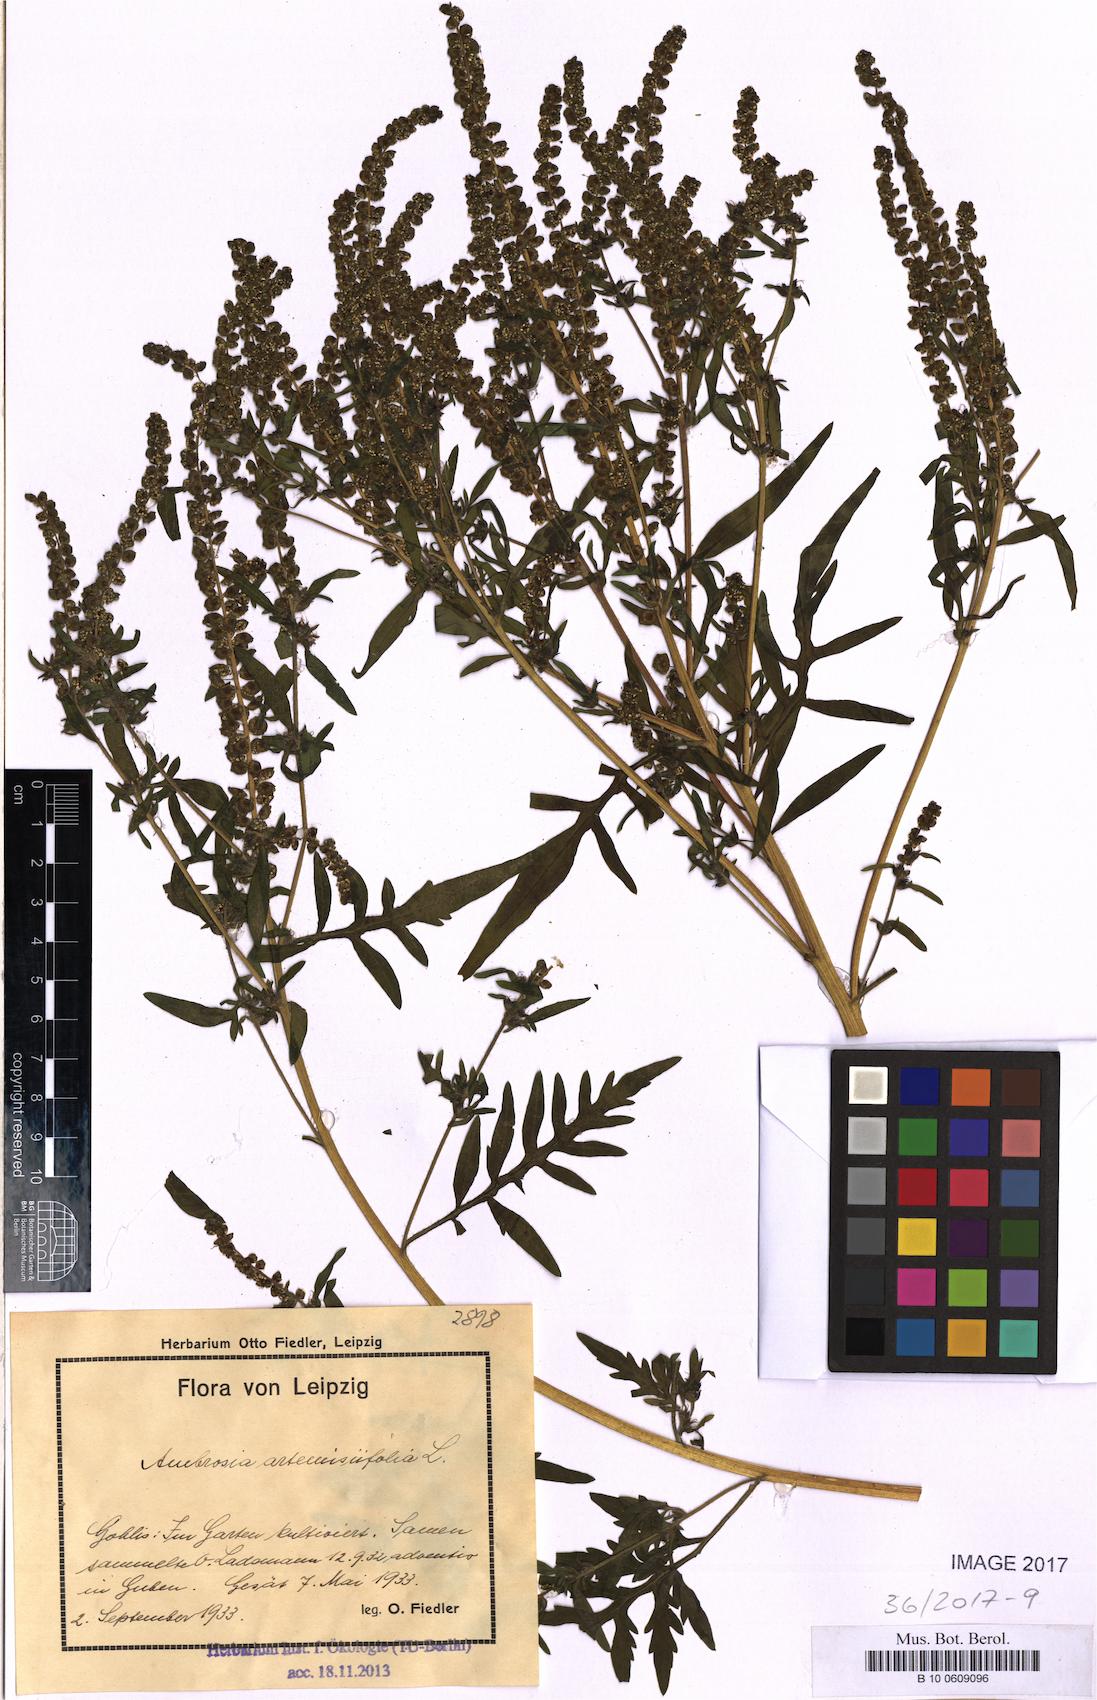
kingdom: Plantae
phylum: Tracheophyta
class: Magnoliopsida
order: Asterales
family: Asteraceae
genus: Ambrosia
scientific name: Ambrosia artemisiifolia
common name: Annual ragweed
